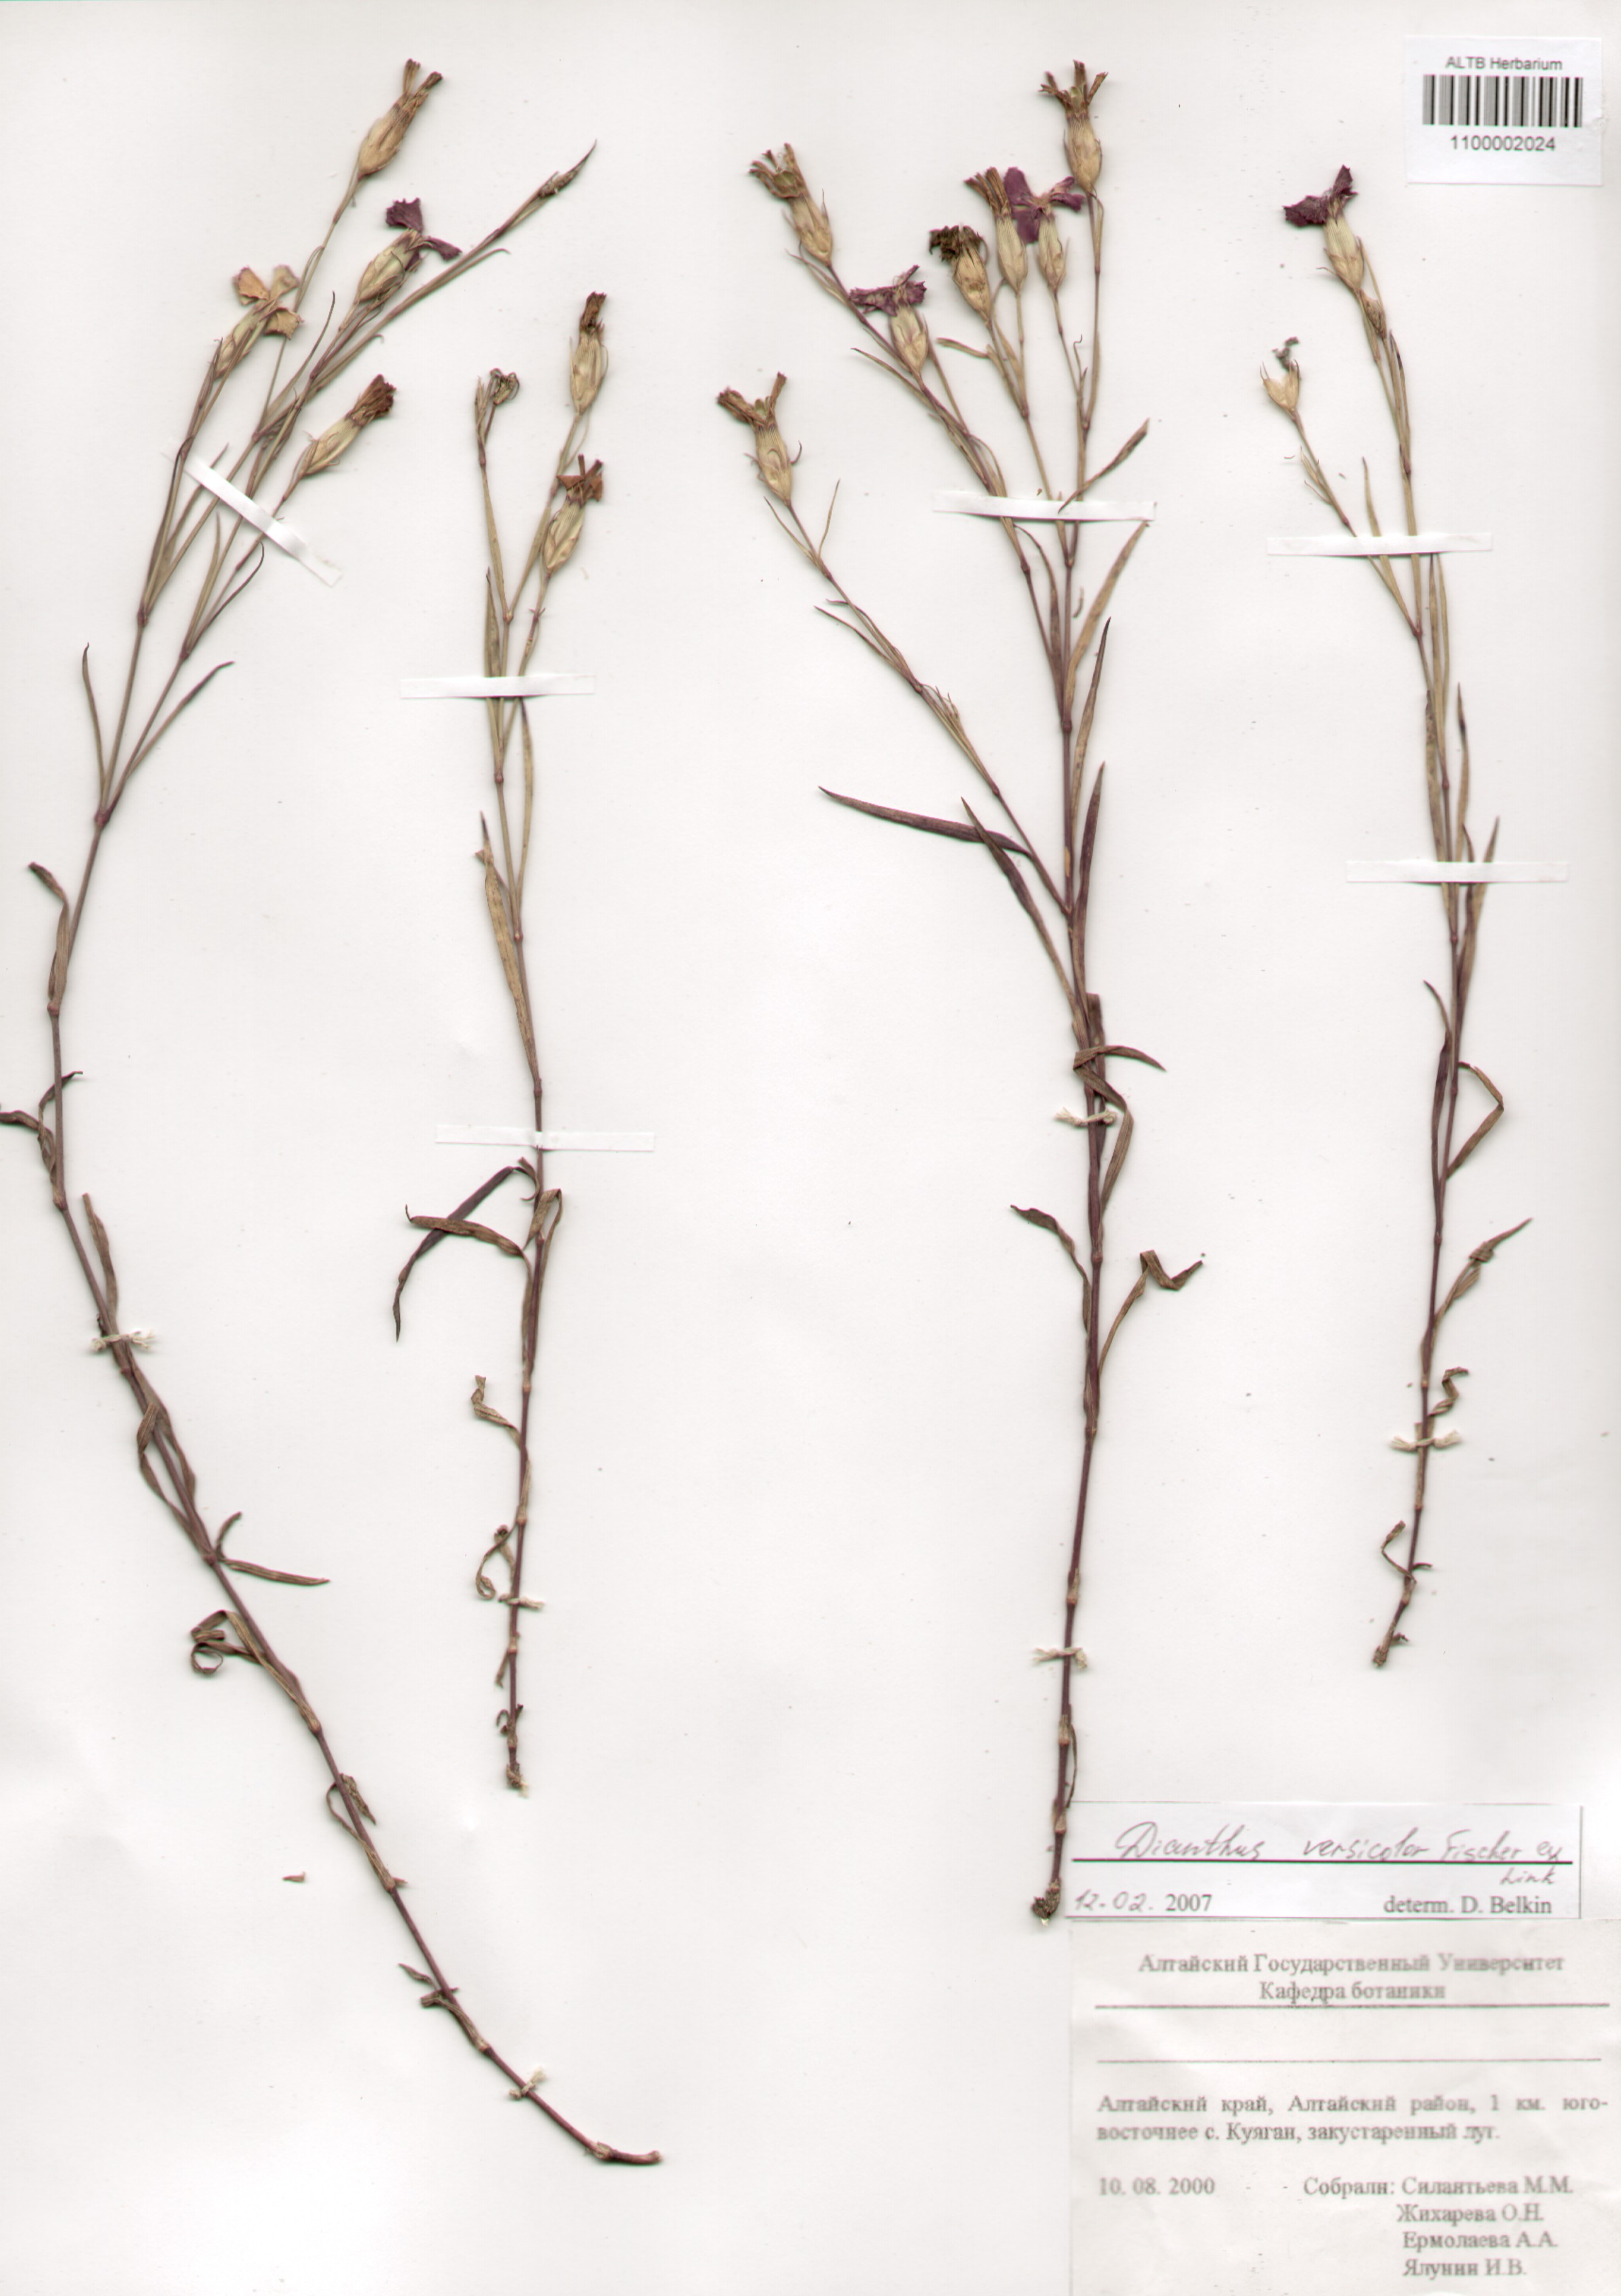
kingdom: Plantae
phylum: Tracheophyta
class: Magnoliopsida
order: Caryophyllales
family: Caryophyllaceae
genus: Dianthus
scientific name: Dianthus chinensis
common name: Rainbow pink
